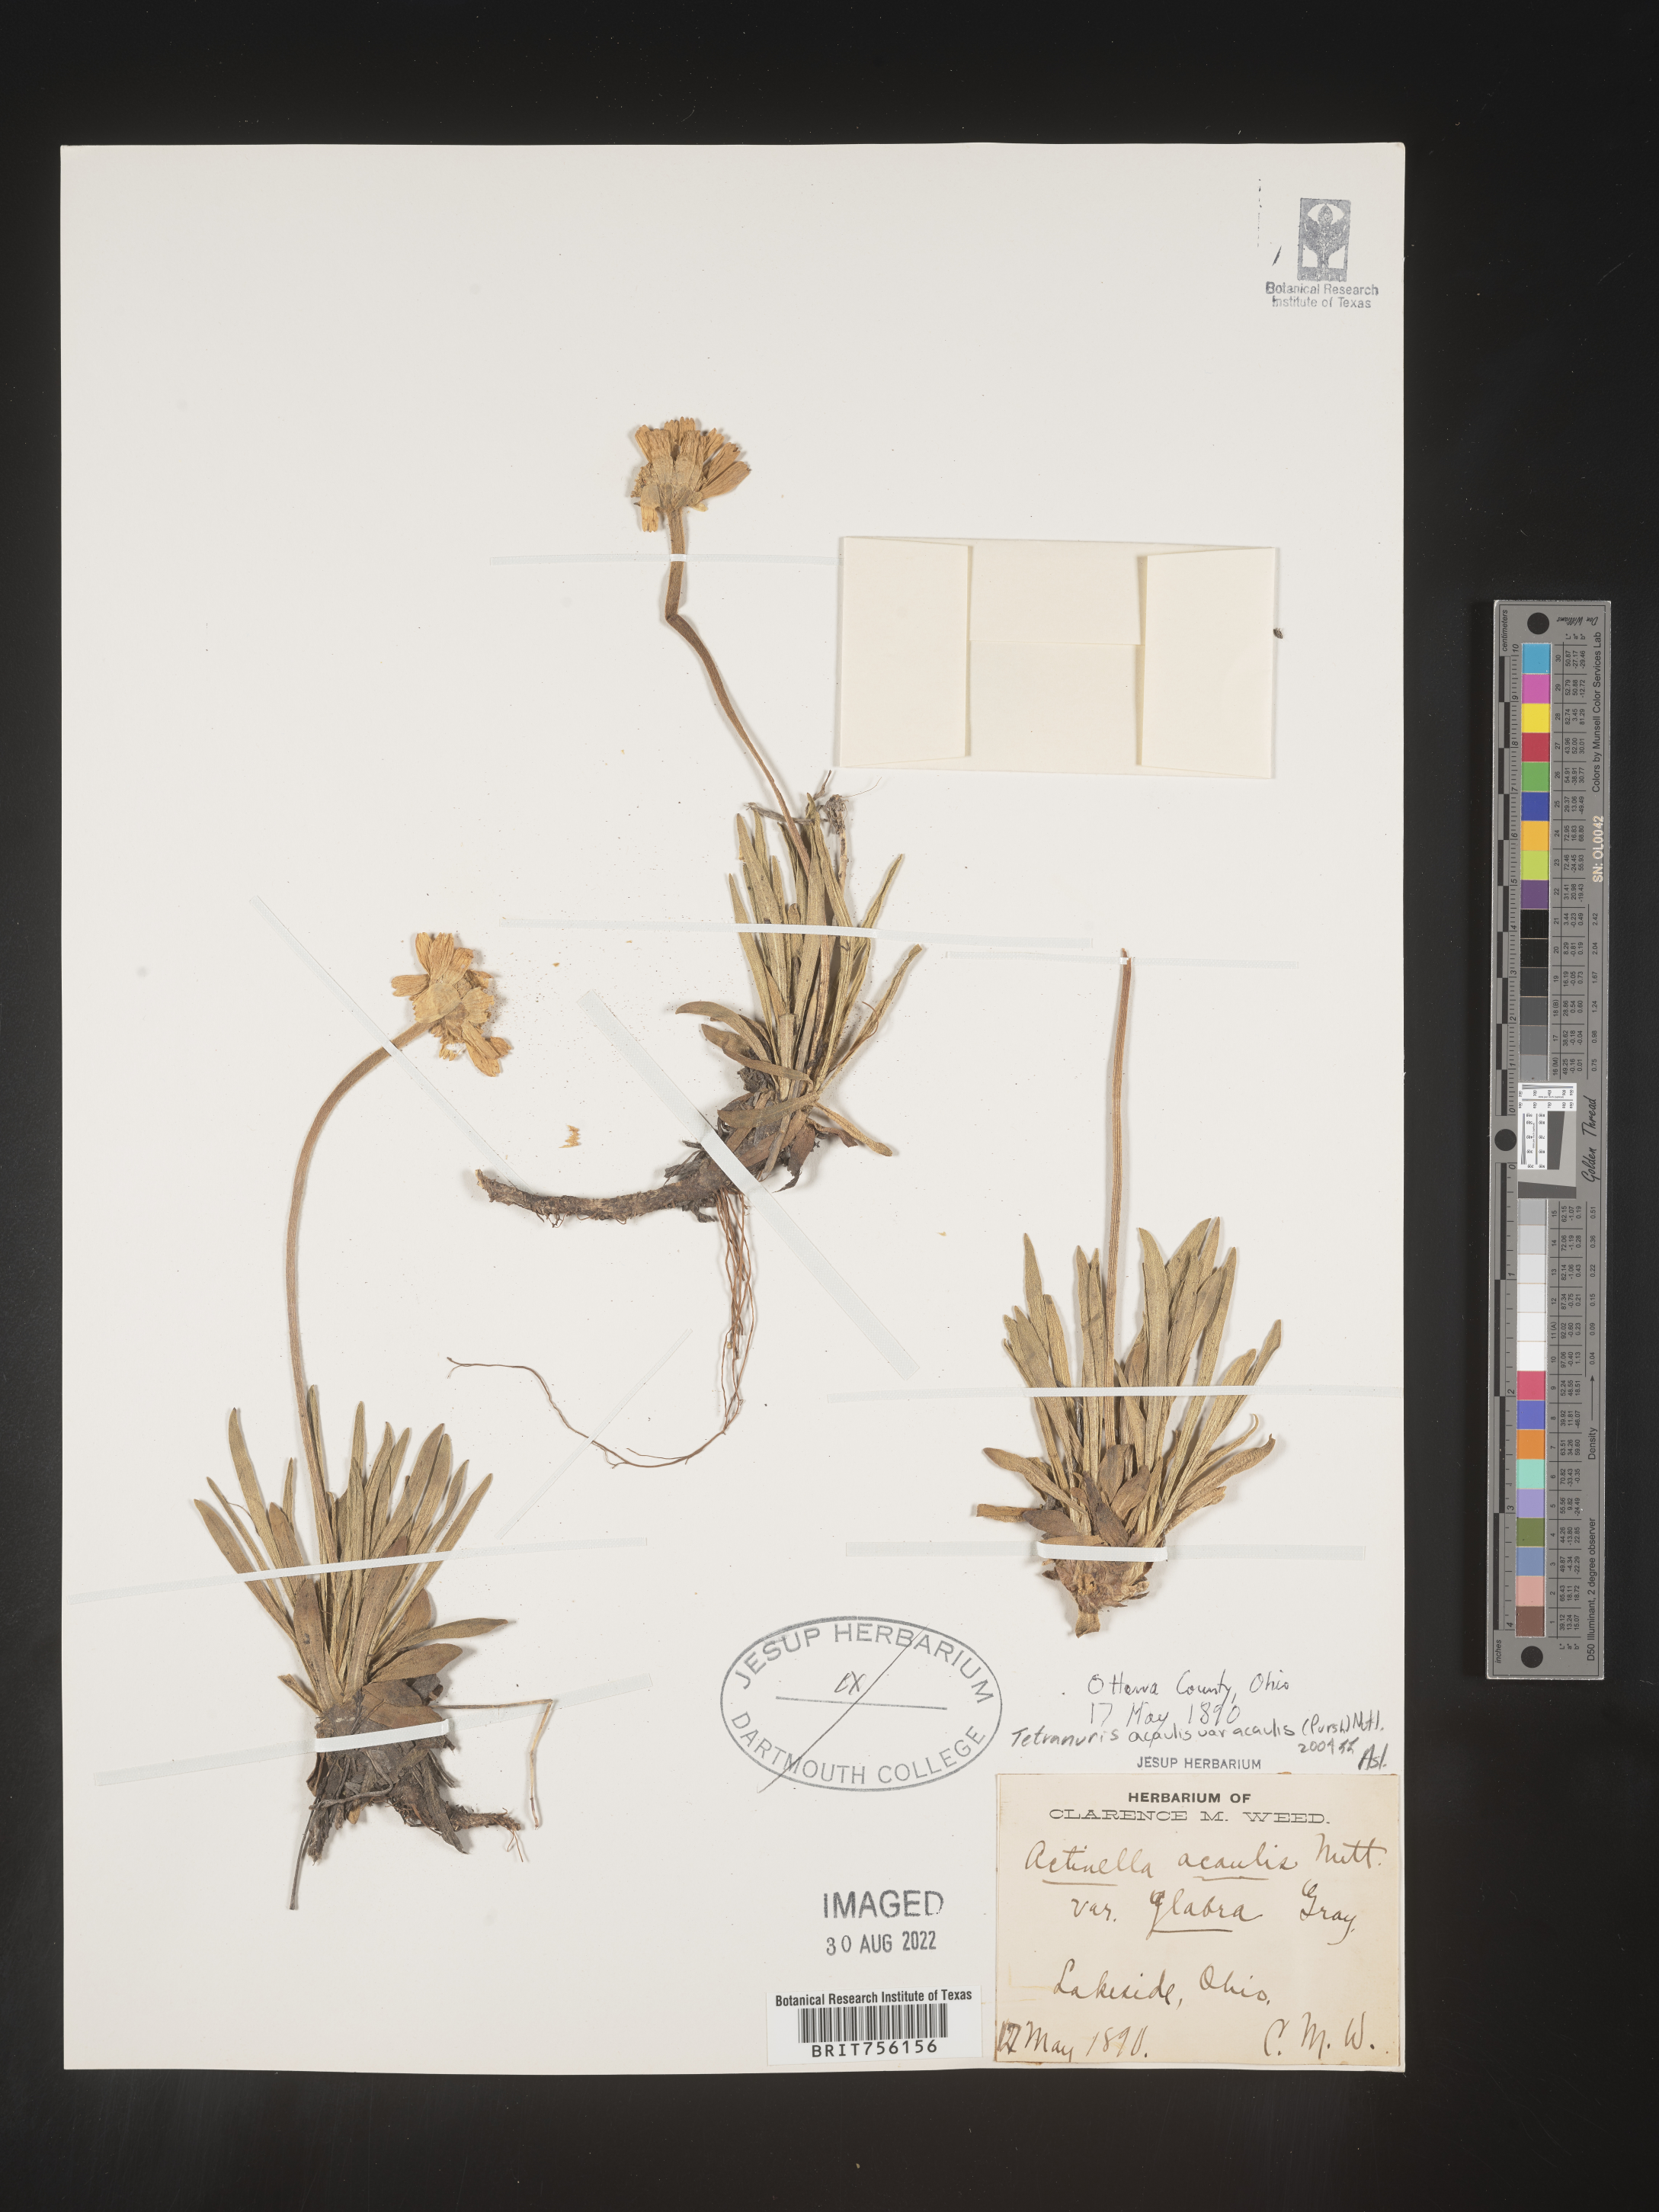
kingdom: Plantae
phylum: Tracheophyta
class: Magnoliopsida
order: Asterales
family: Asteraceae
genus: Tetraneuris
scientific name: Tetraneuris acaulis
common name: Butte marigold
